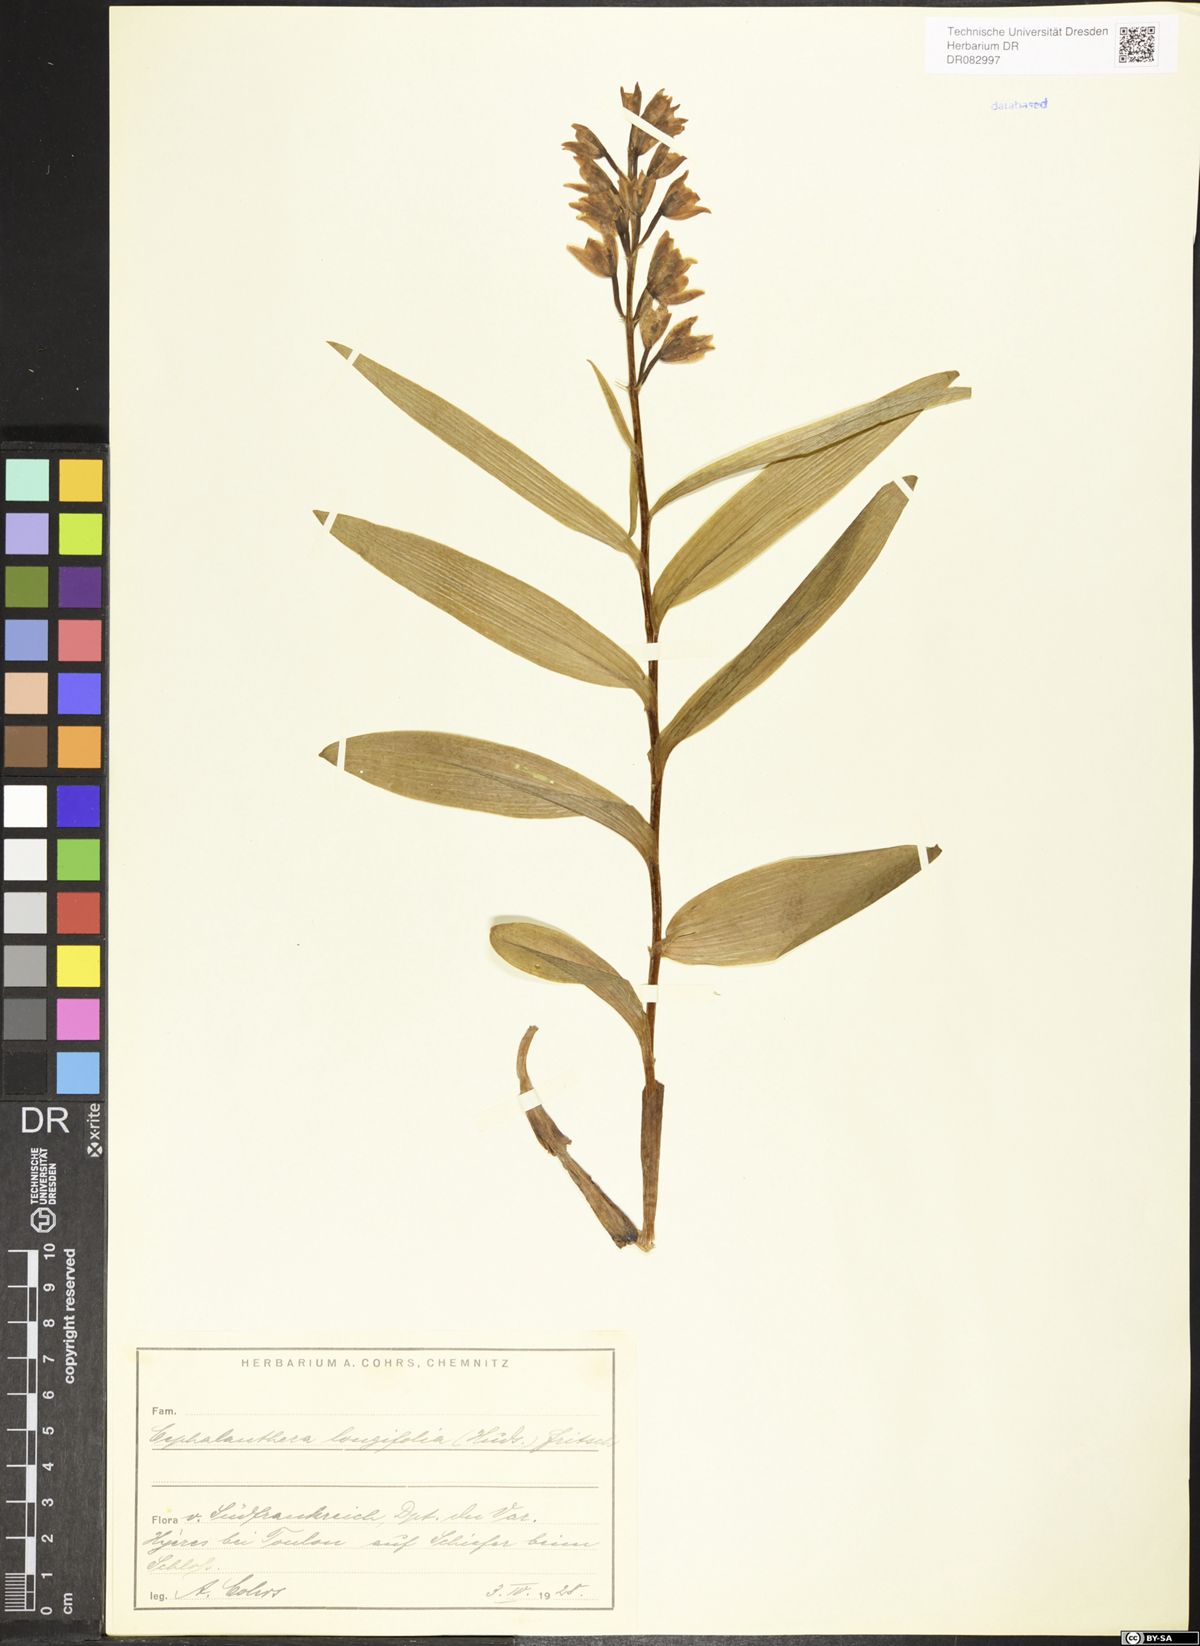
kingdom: Plantae
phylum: Tracheophyta
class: Liliopsida
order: Asparagales
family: Orchidaceae
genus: Cephalanthera
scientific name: Cephalanthera longifolia
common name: Narrow-leaved helleborine
